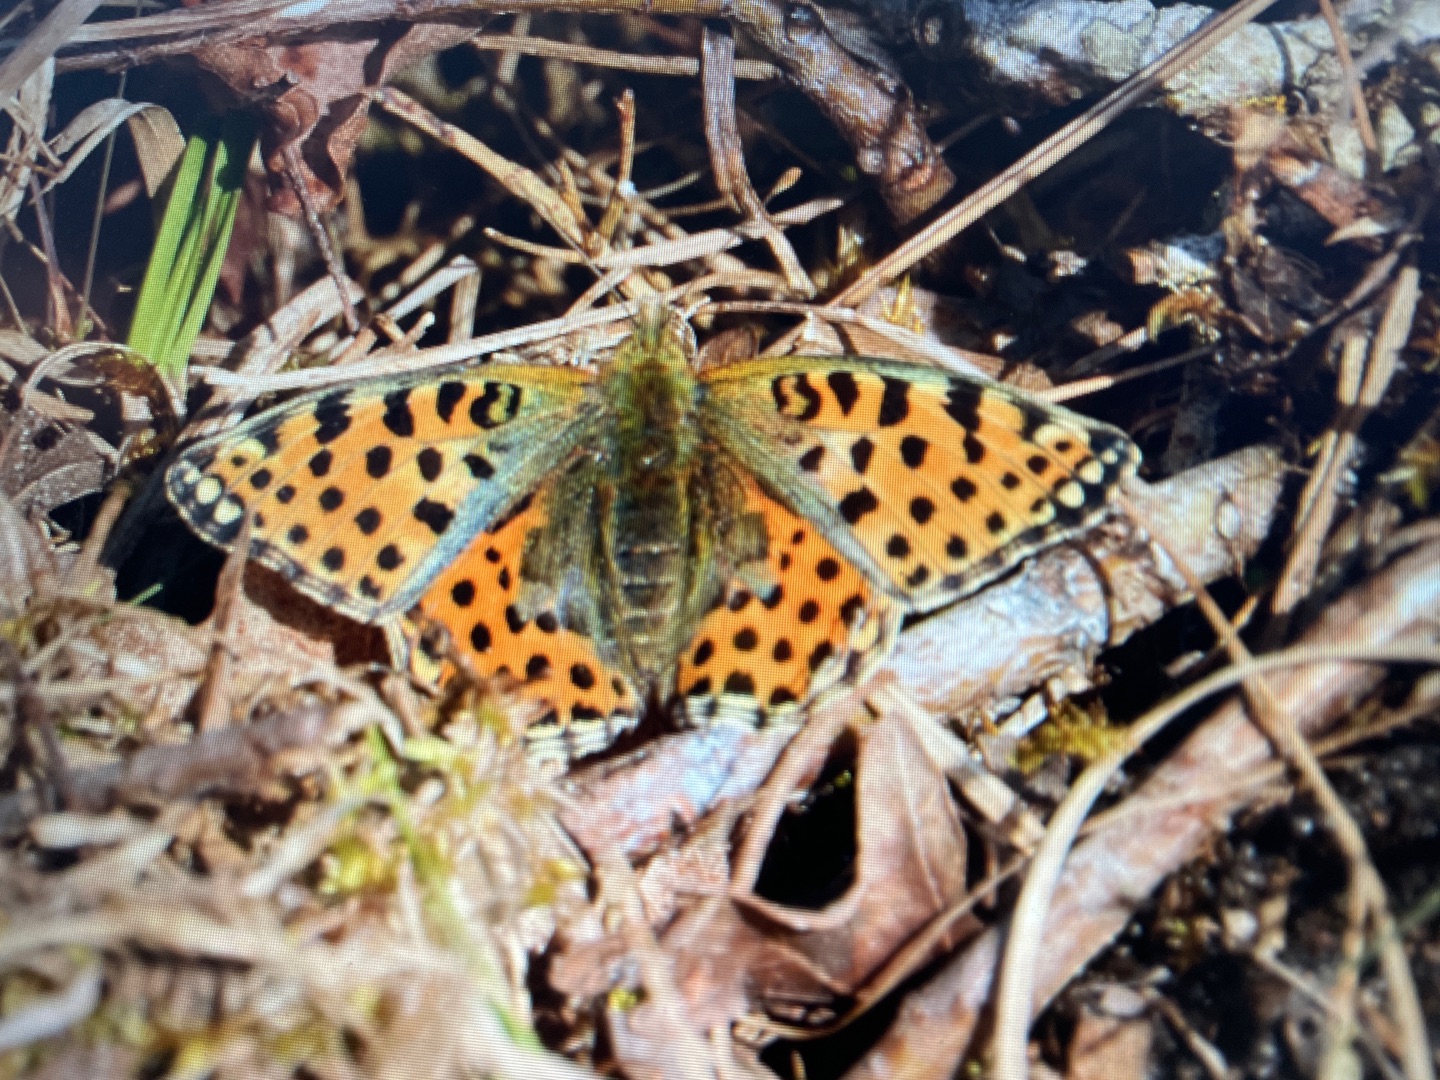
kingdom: Animalia
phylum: Arthropoda
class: Insecta
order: Lepidoptera
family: Nymphalidae
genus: Issoria
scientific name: Issoria lathonia
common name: Storplettet perlemorsommerfugl
